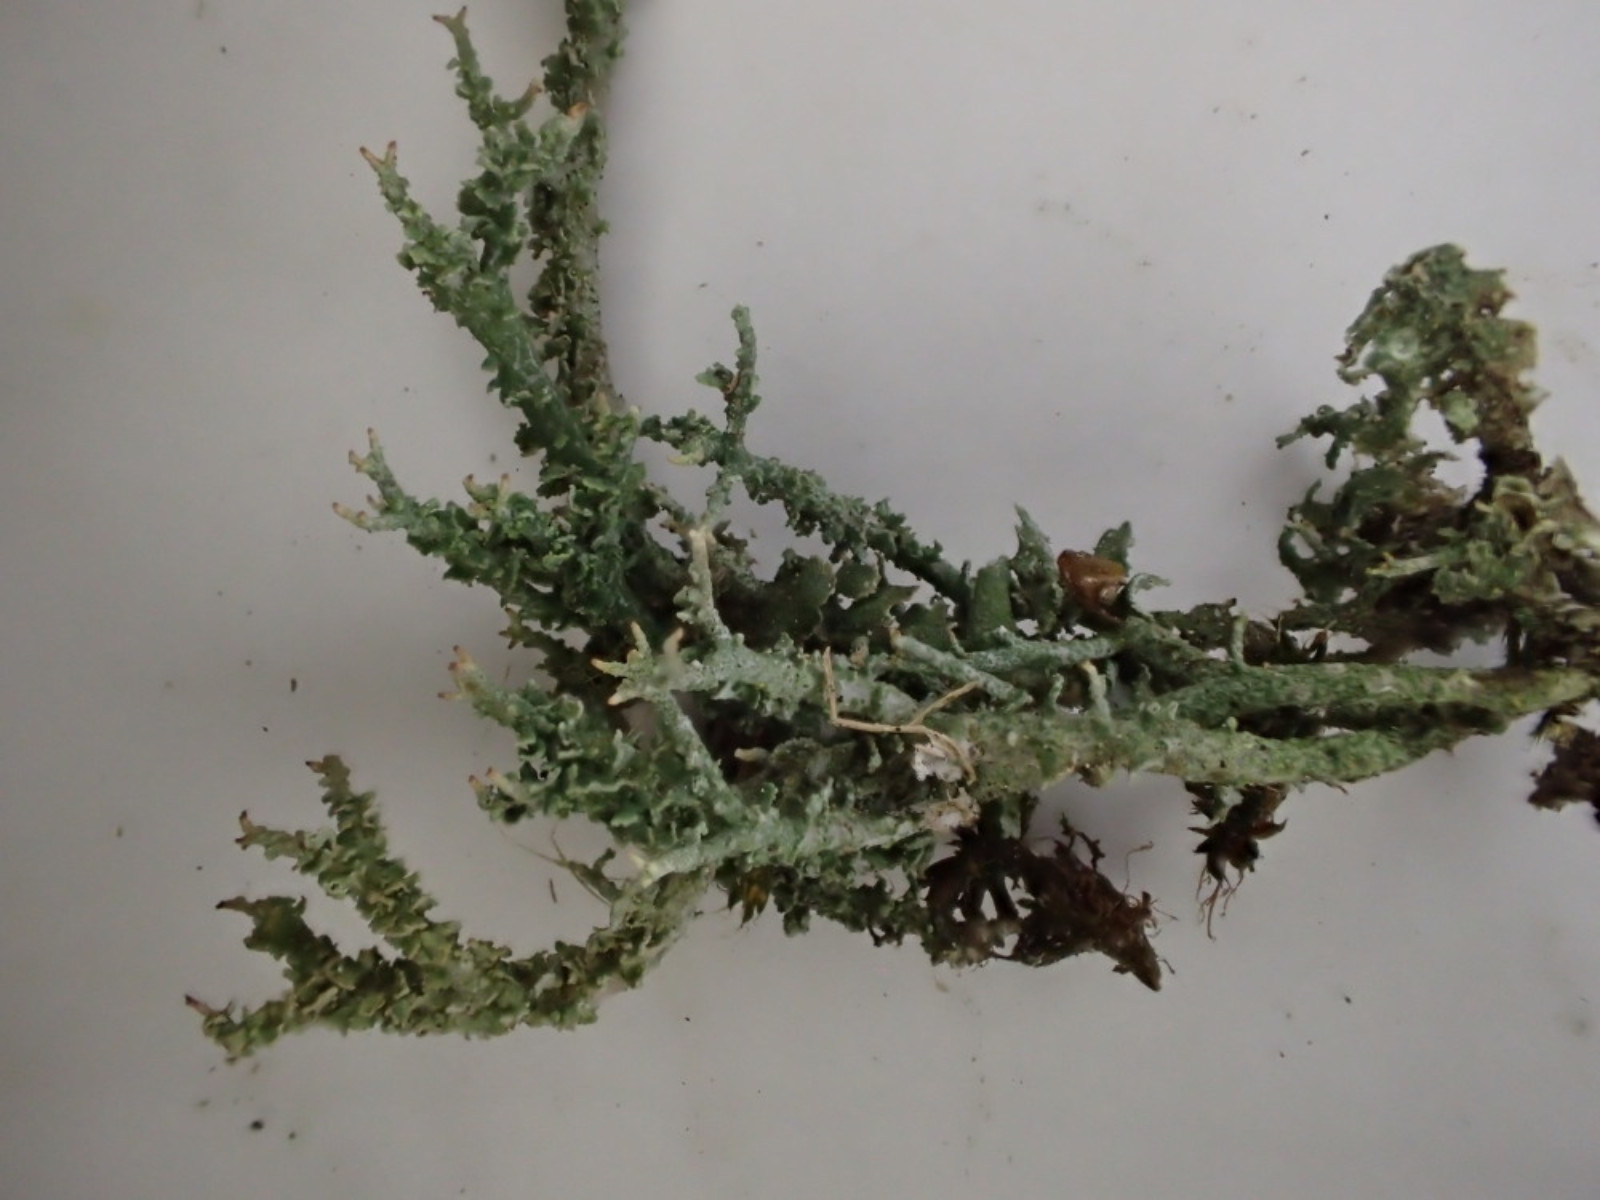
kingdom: Fungi
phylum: Ascomycota
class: Lecanoromycetes
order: Lecanorales
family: Cladoniaceae
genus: Cladonia
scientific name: Cladonia scabriuscula
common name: ru bægerlav
